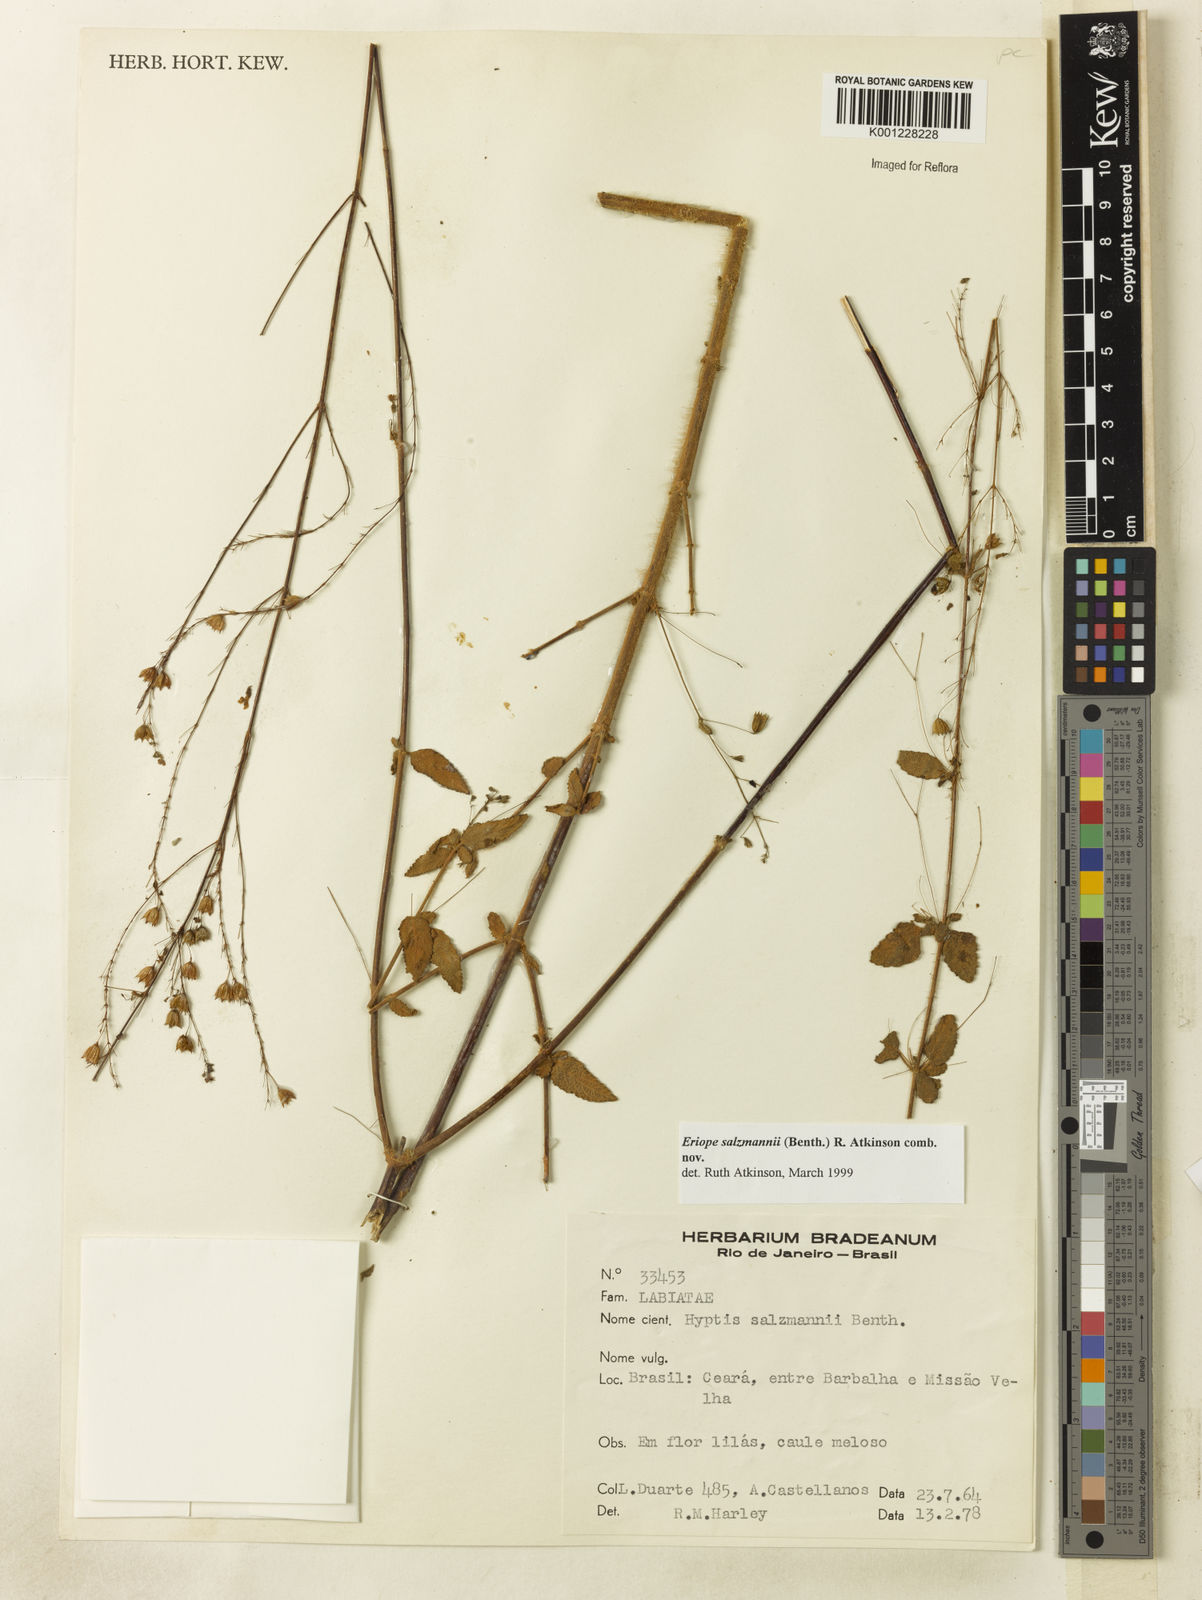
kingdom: Plantae
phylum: Tracheophyta
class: Magnoliopsida
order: Lamiales
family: Lamiaceae
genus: Hypenia
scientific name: Hypenia salzmannii
